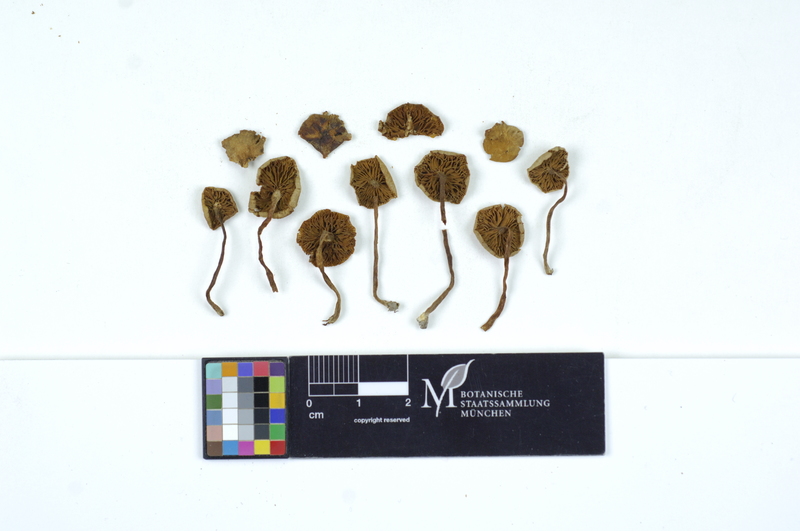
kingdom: Plantae
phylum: Tracheophyta
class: Magnoliopsida
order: Fagales
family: Fagaceae
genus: Quercus
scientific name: Quercus
